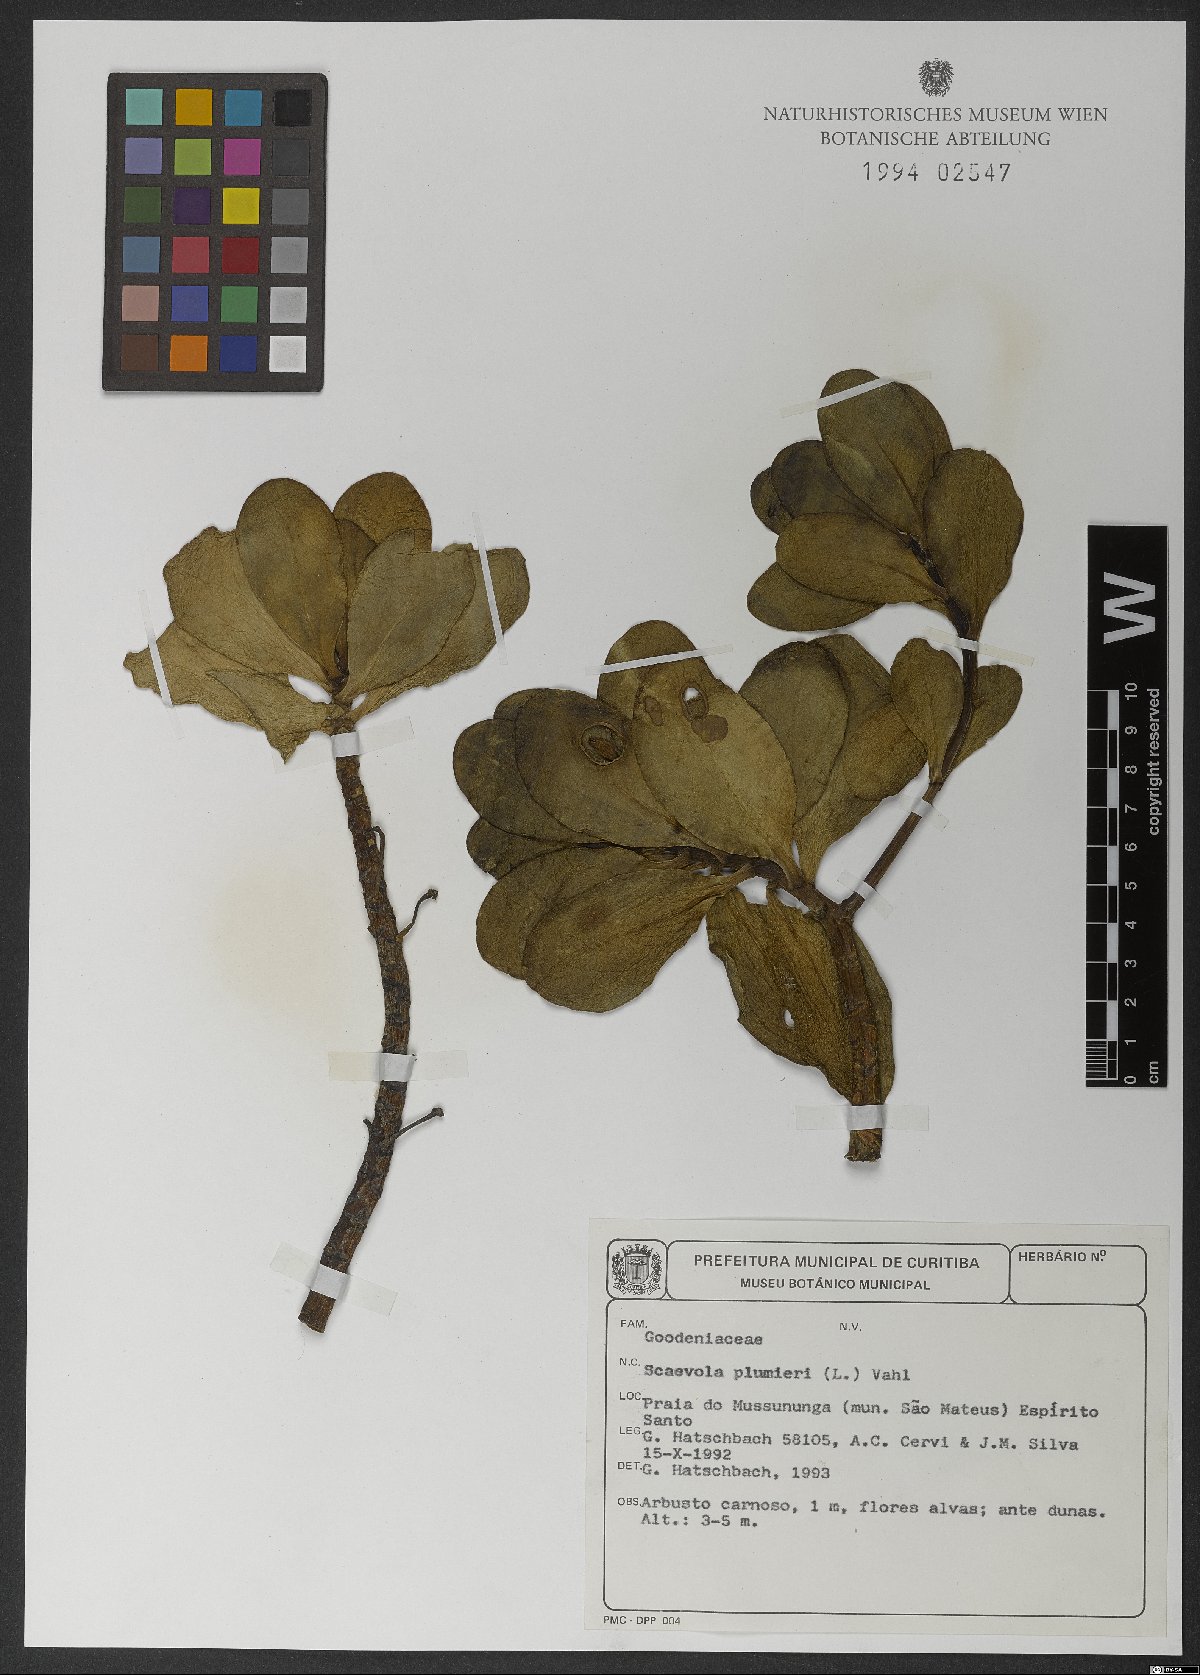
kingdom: Plantae
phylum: Tracheophyta
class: Magnoliopsida
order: Asterales
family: Goodeniaceae
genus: Scaevola
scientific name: Scaevola plumieri
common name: Gull feed
